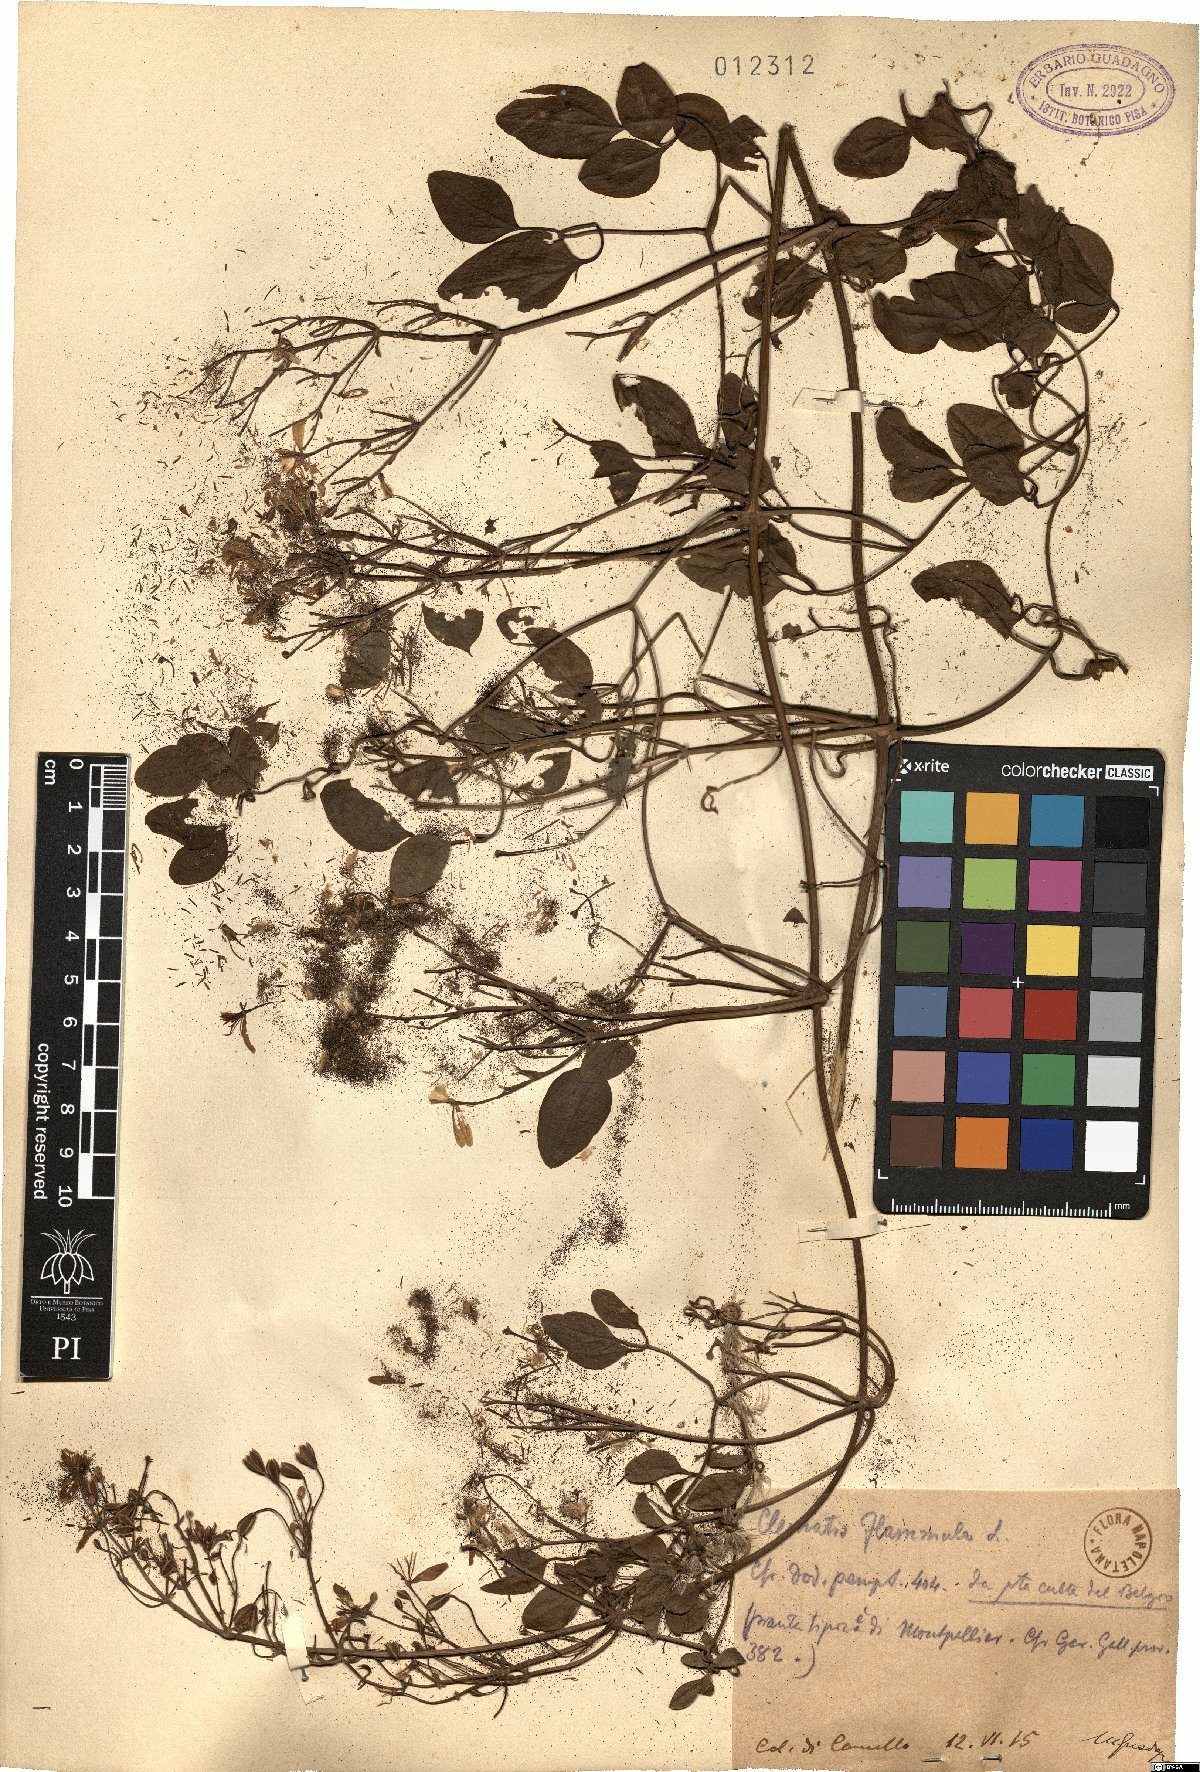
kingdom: Plantae
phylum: Tracheophyta
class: Magnoliopsida
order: Ranunculales
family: Ranunculaceae
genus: Clematis
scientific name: Clematis flammula
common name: Virgin's-bower
